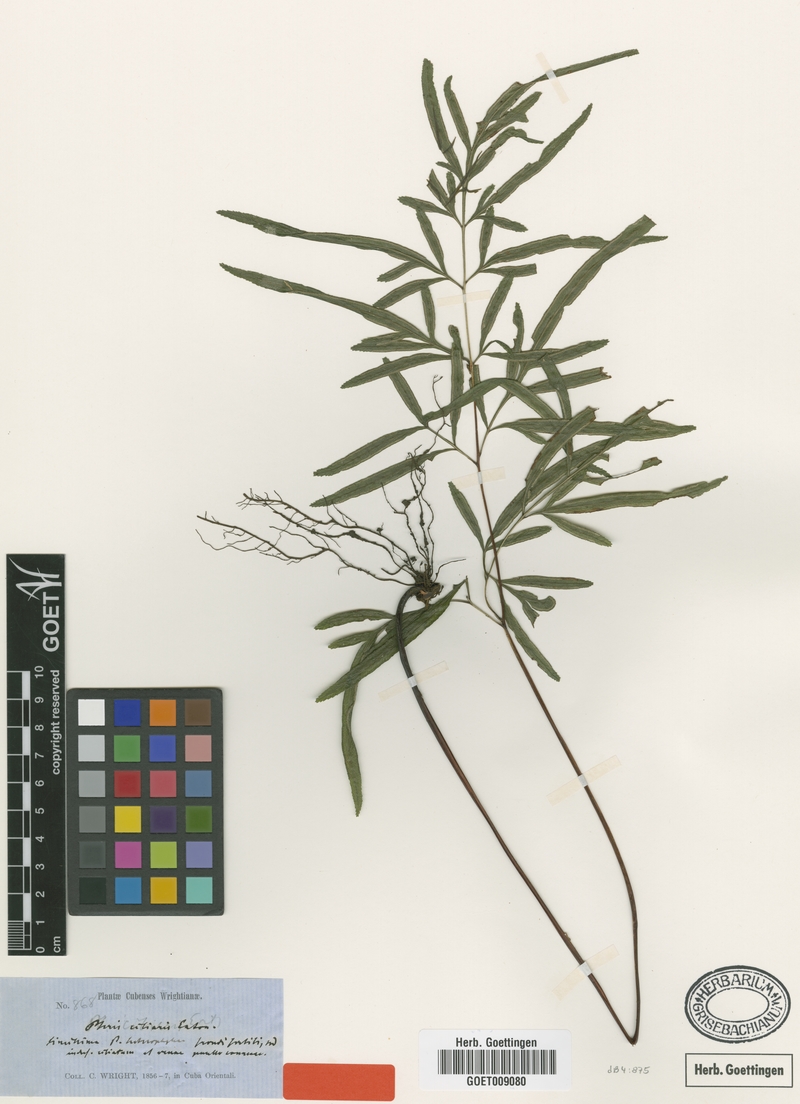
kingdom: Plantae
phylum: Tracheophyta
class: Polypodiopsida
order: Polypodiales
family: Pteridaceae
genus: Pteris
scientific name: Pteris ciliaris
